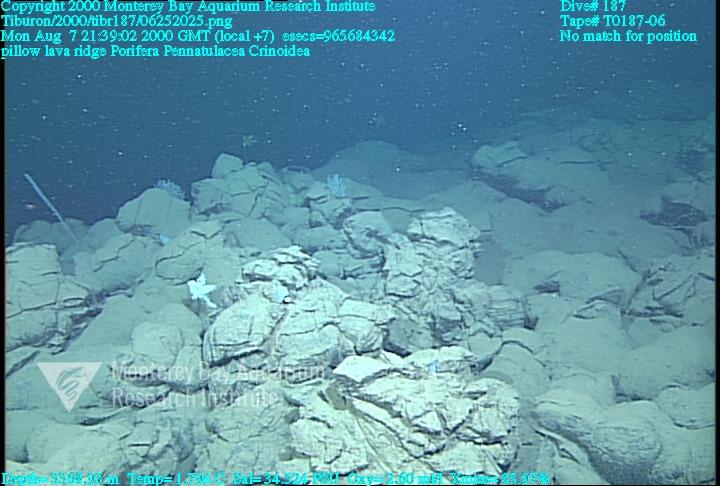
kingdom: Animalia
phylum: Porifera
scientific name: Porifera
